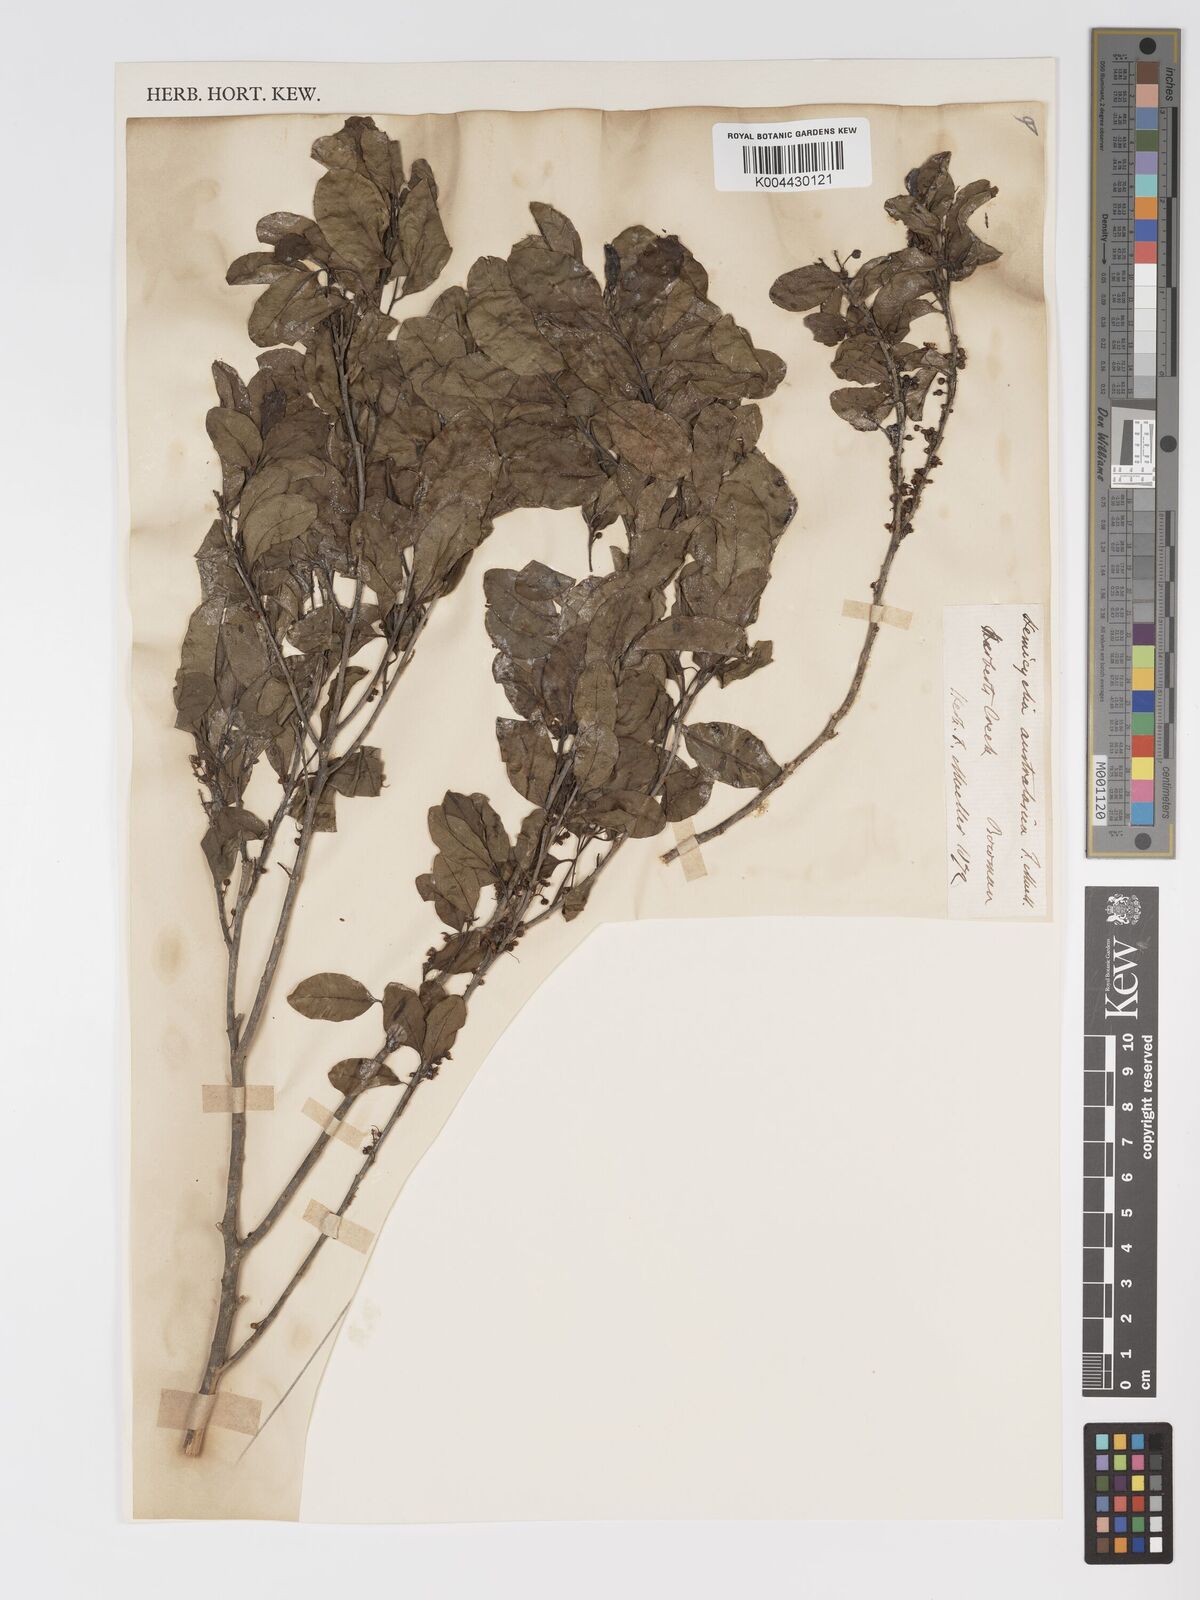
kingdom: Plantae
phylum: Tracheophyta
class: Magnoliopsida
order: Malpighiales
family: Putranjivaceae
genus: Drypetes
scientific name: Drypetes deplanchei
